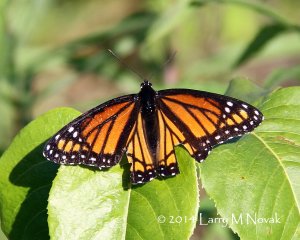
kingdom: Animalia
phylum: Arthropoda
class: Insecta
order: Lepidoptera
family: Nymphalidae
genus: Limenitis
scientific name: Limenitis archippus
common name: Viceroy
